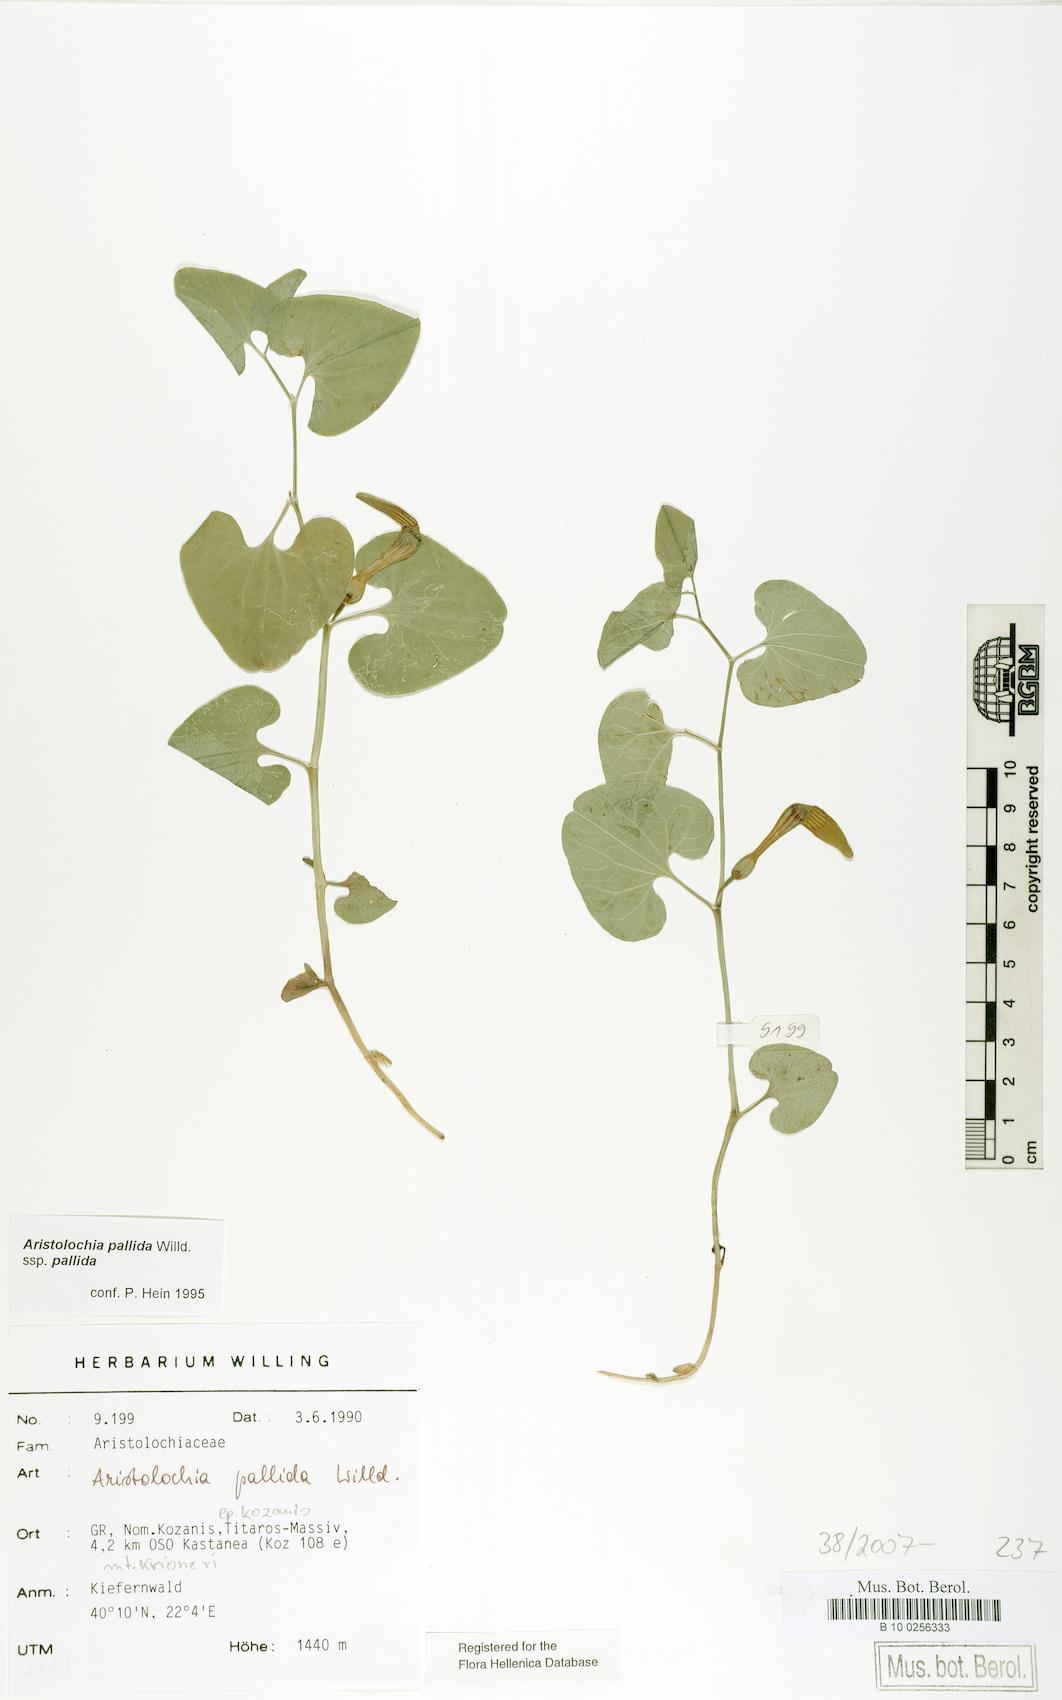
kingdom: Plantae
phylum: Tracheophyta
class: Magnoliopsida
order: Piperales
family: Aristolochiaceae
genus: Aristolochia
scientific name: Aristolochia pallida
